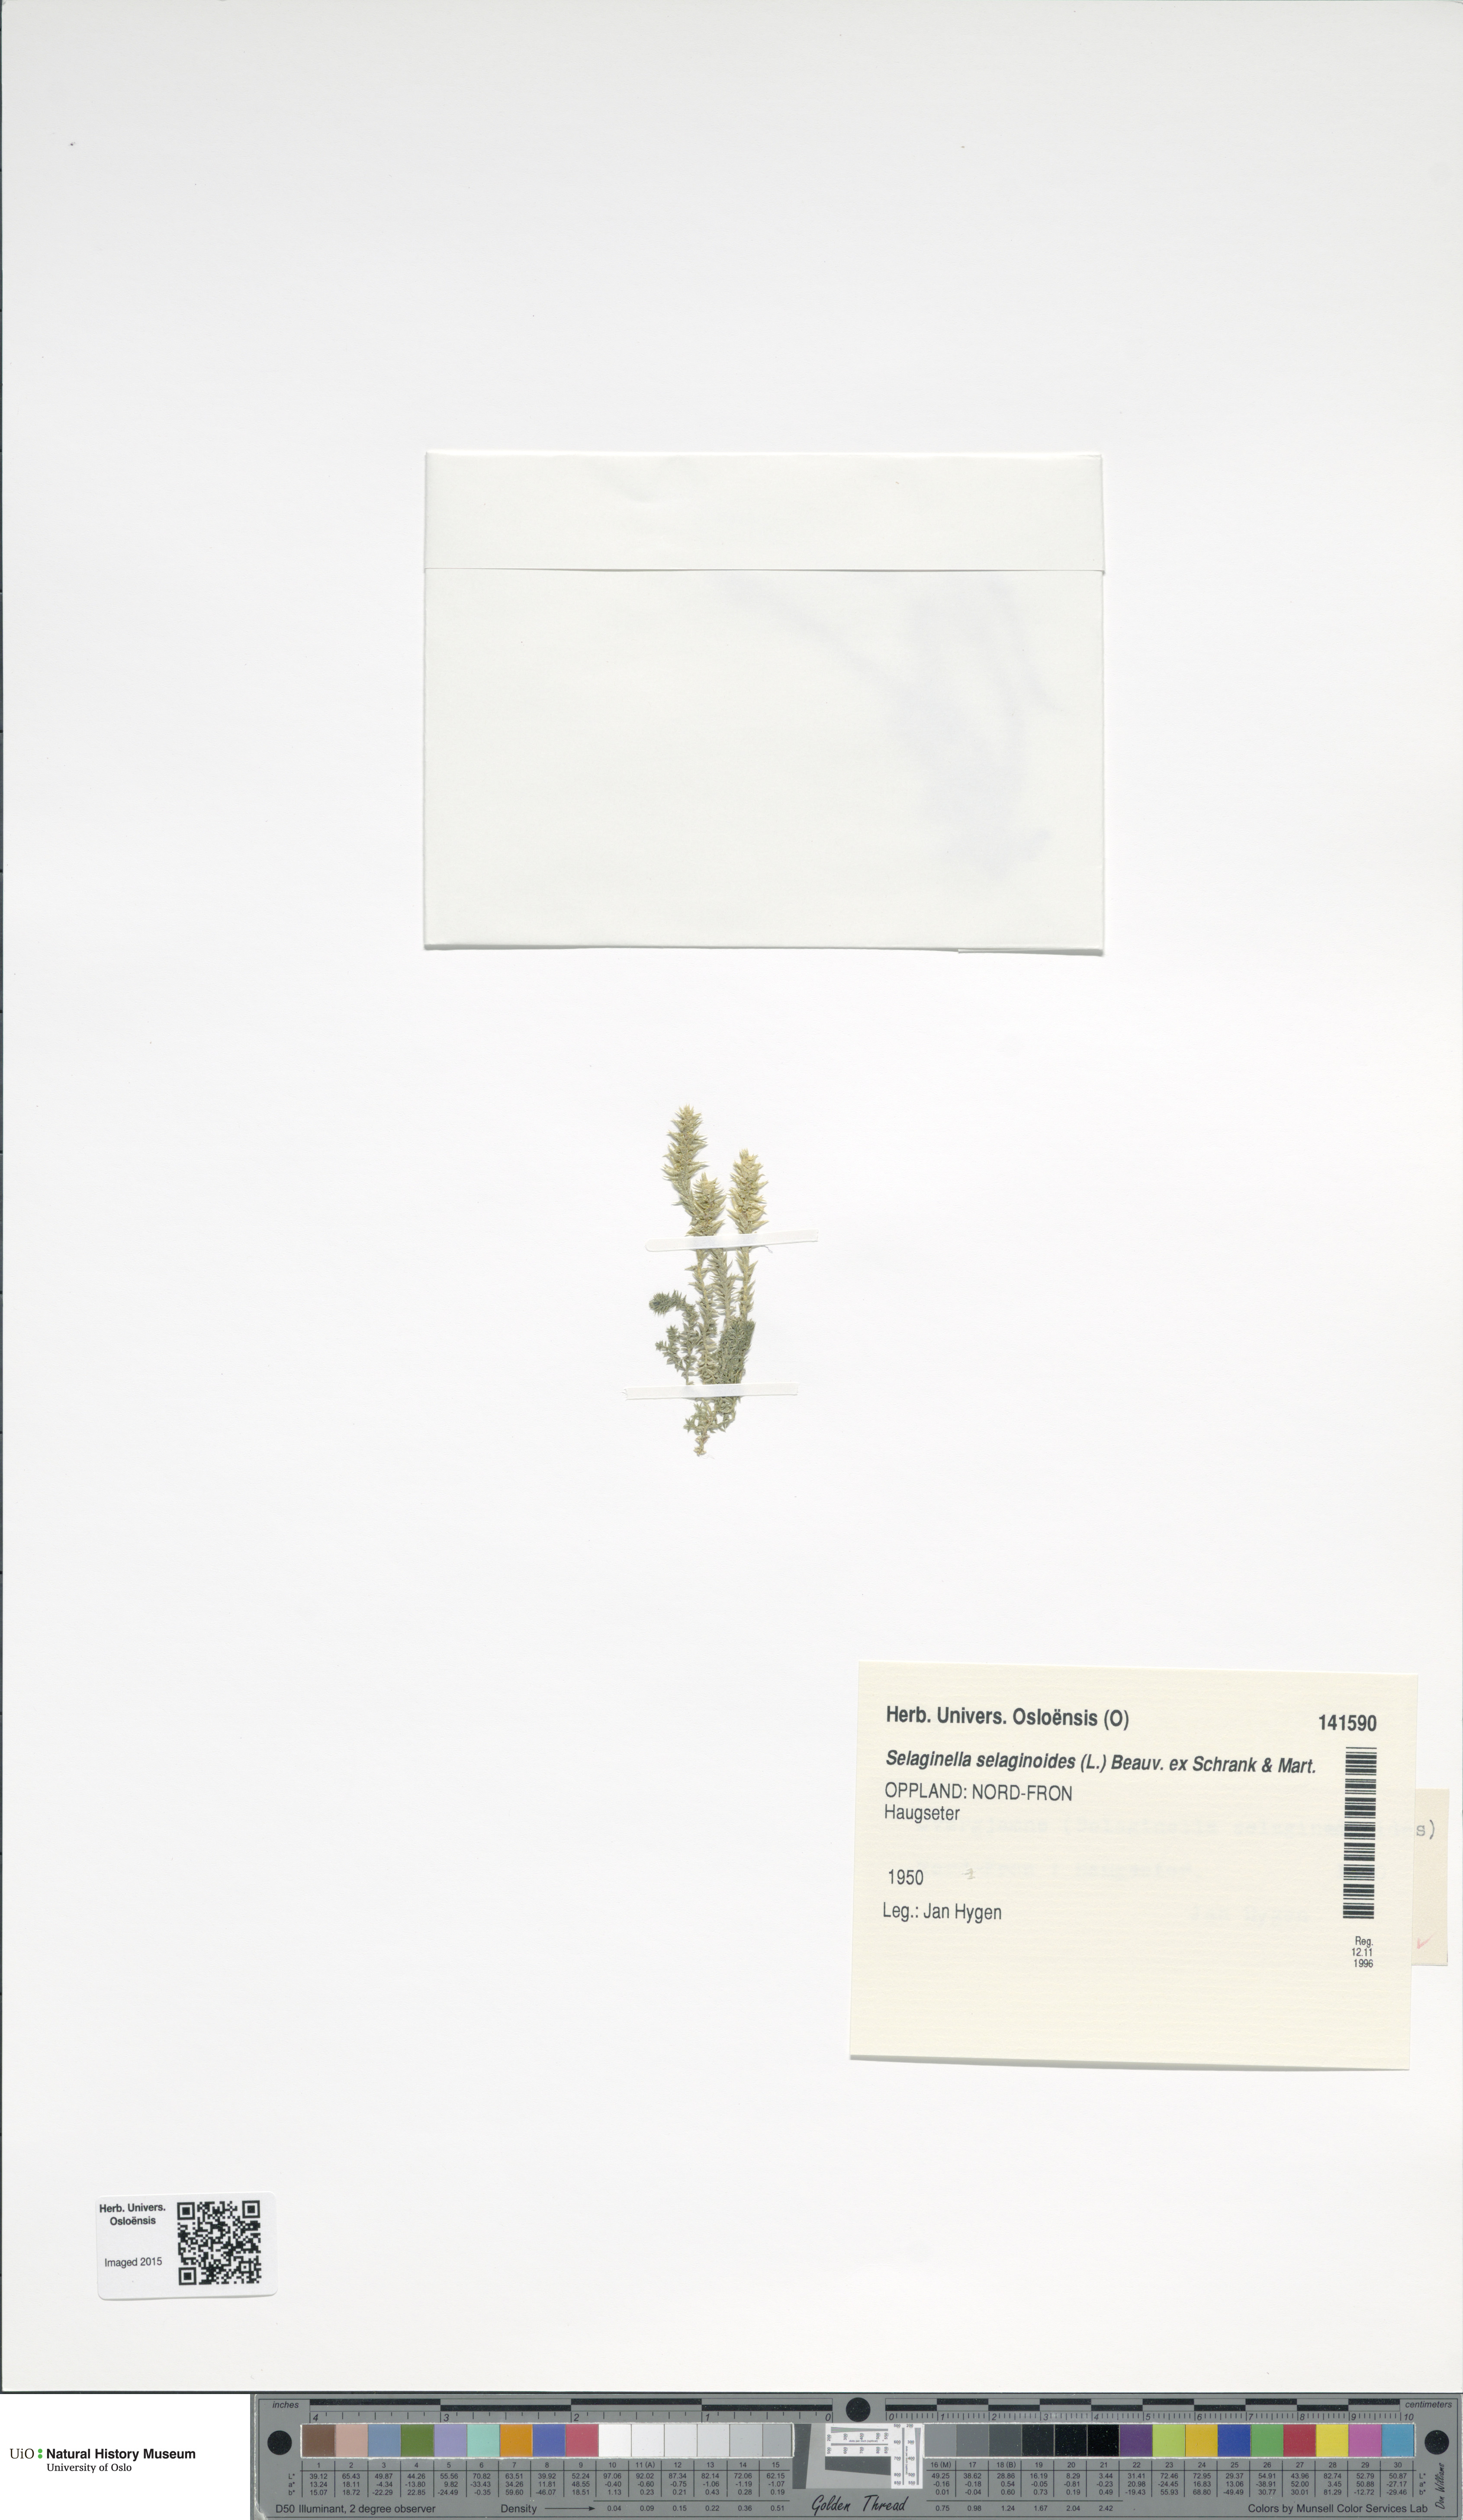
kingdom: Plantae
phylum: Tracheophyta
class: Lycopodiopsida
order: Selaginellales
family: Selaginellaceae
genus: Selaginella
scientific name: Selaginella selaginoides
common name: Prickly mountain-moss
